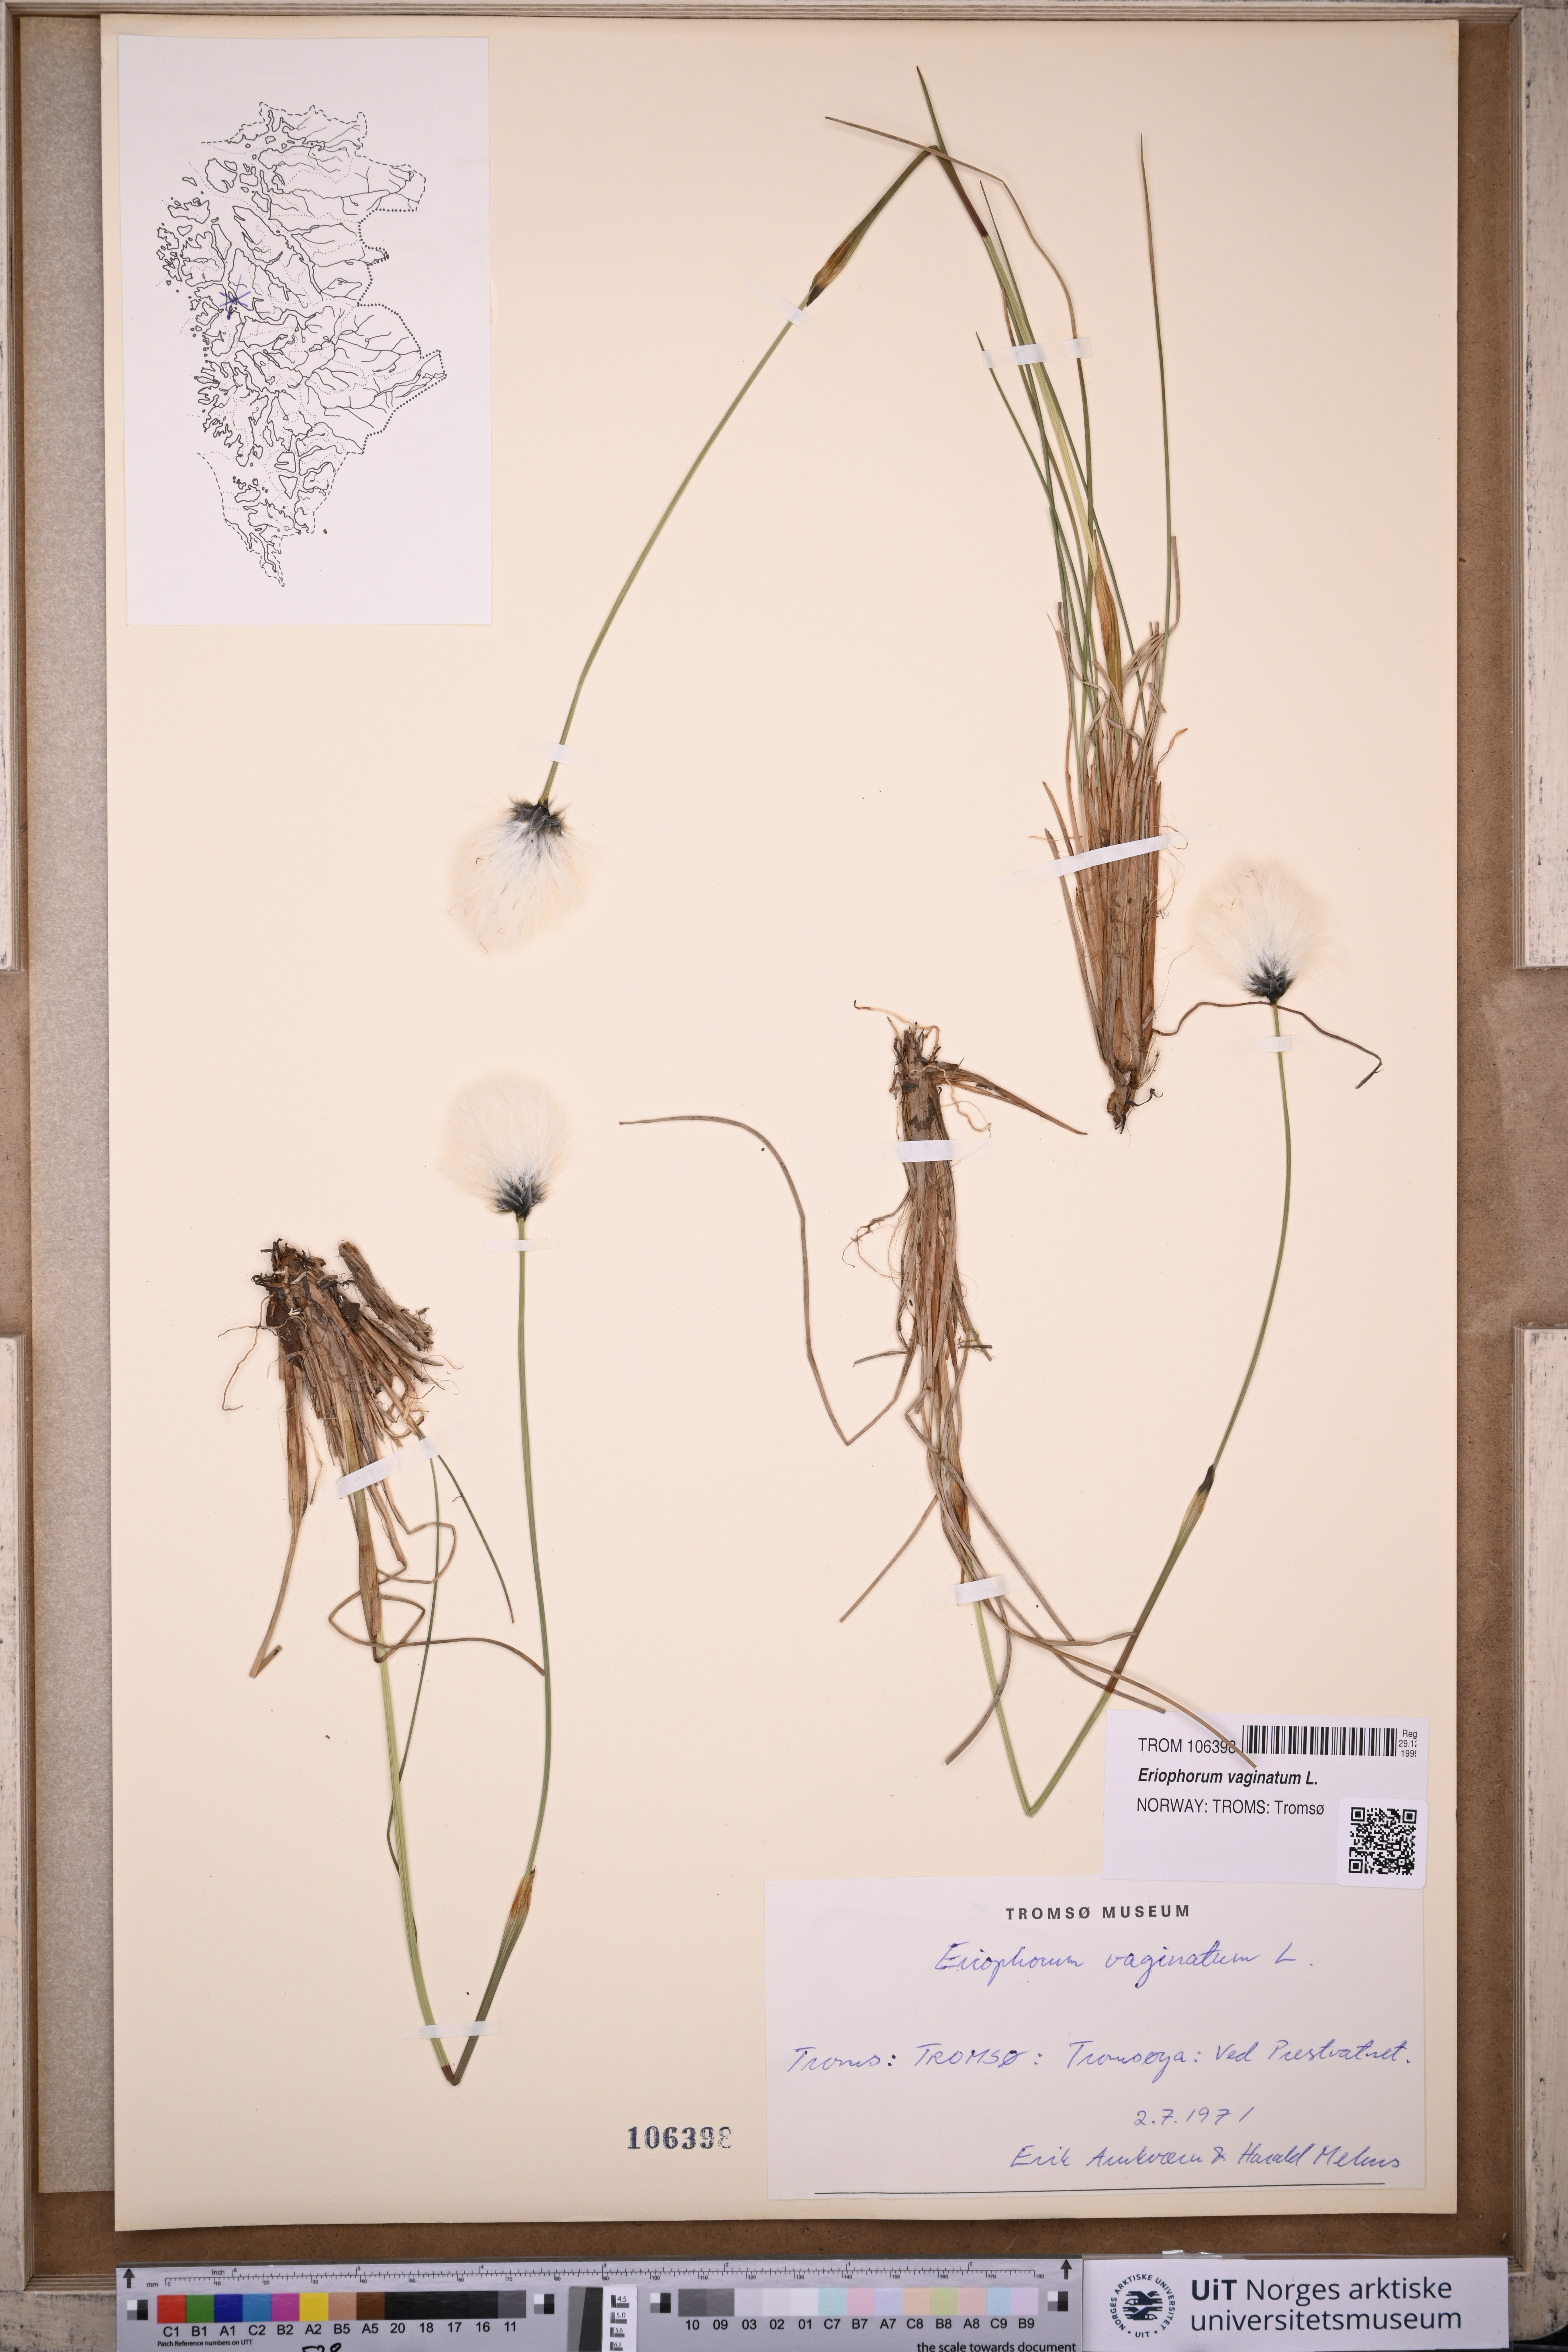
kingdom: Plantae
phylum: Tracheophyta
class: Liliopsida
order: Poales
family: Cyperaceae
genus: Eriophorum
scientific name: Eriophorum vaginatum
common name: Hare's-tail cottongrass
